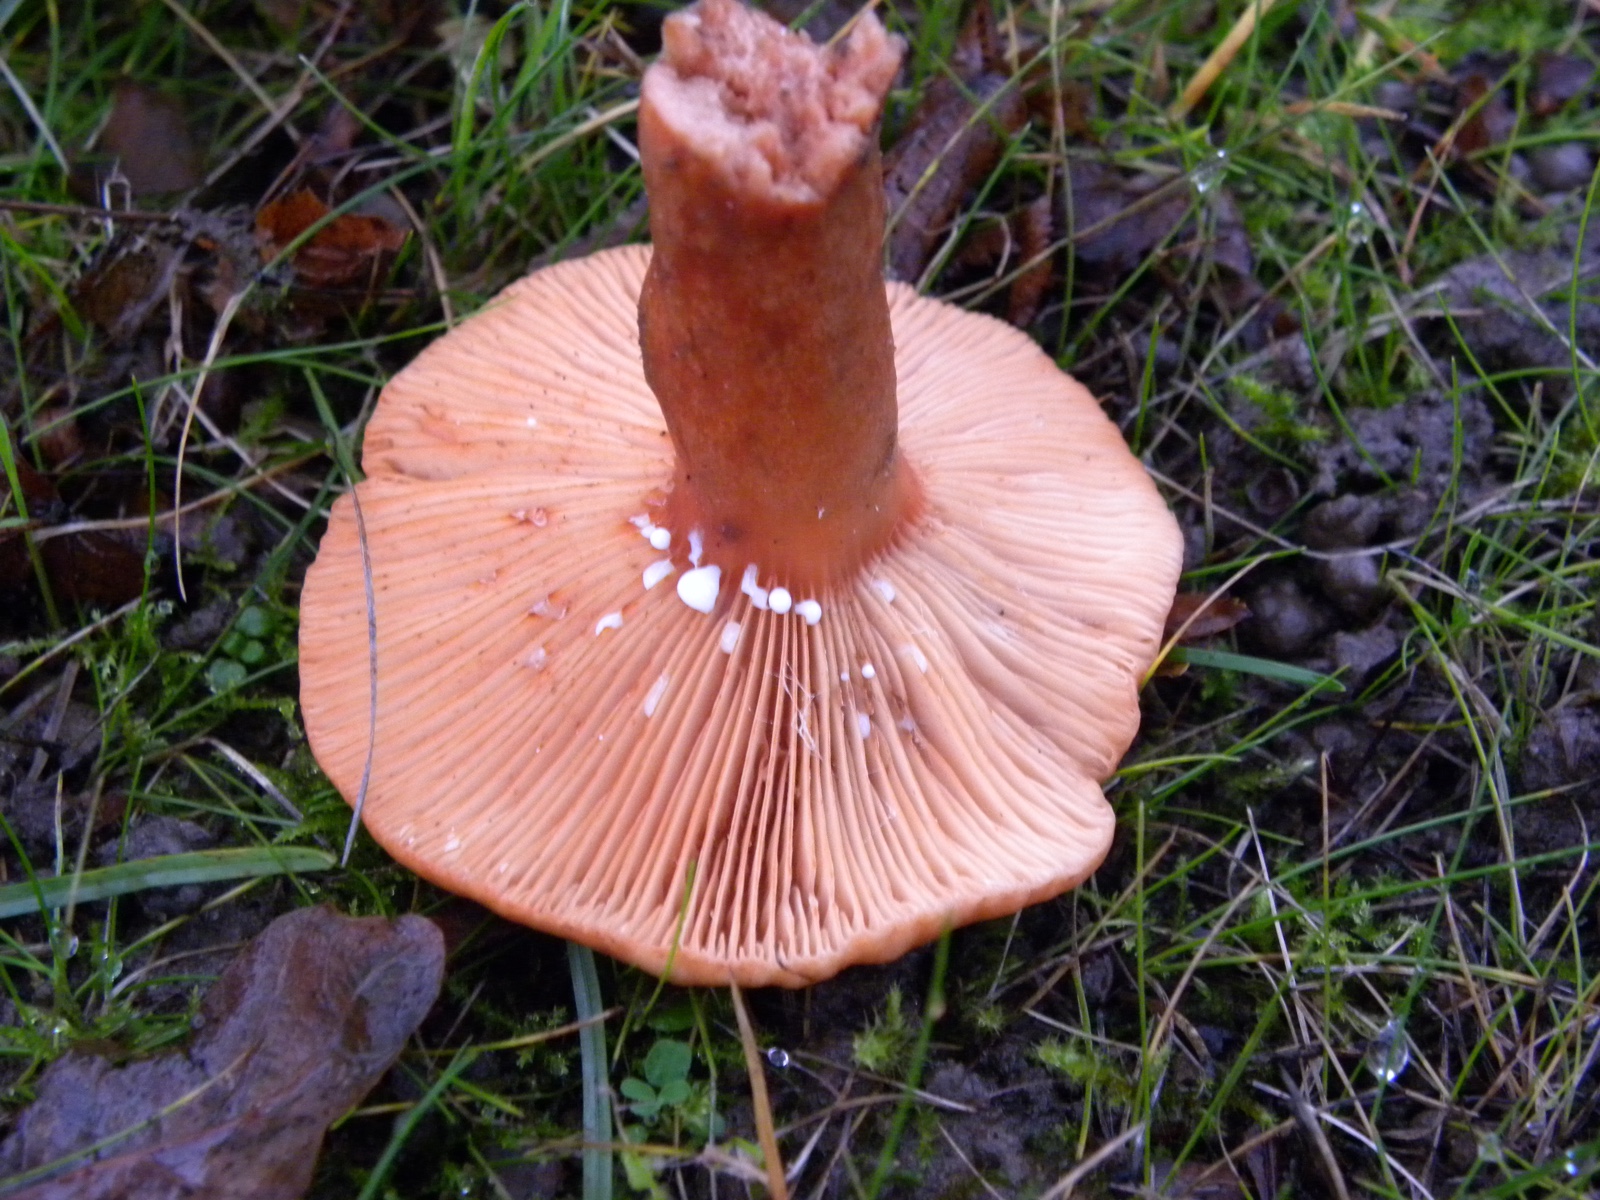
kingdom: Fungi
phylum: Basidiomycota
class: Agaricomycetes
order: Russulales
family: Russulaceae
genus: Lactarius
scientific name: Lactarius fulvissimus
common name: ræve-mælkehat
